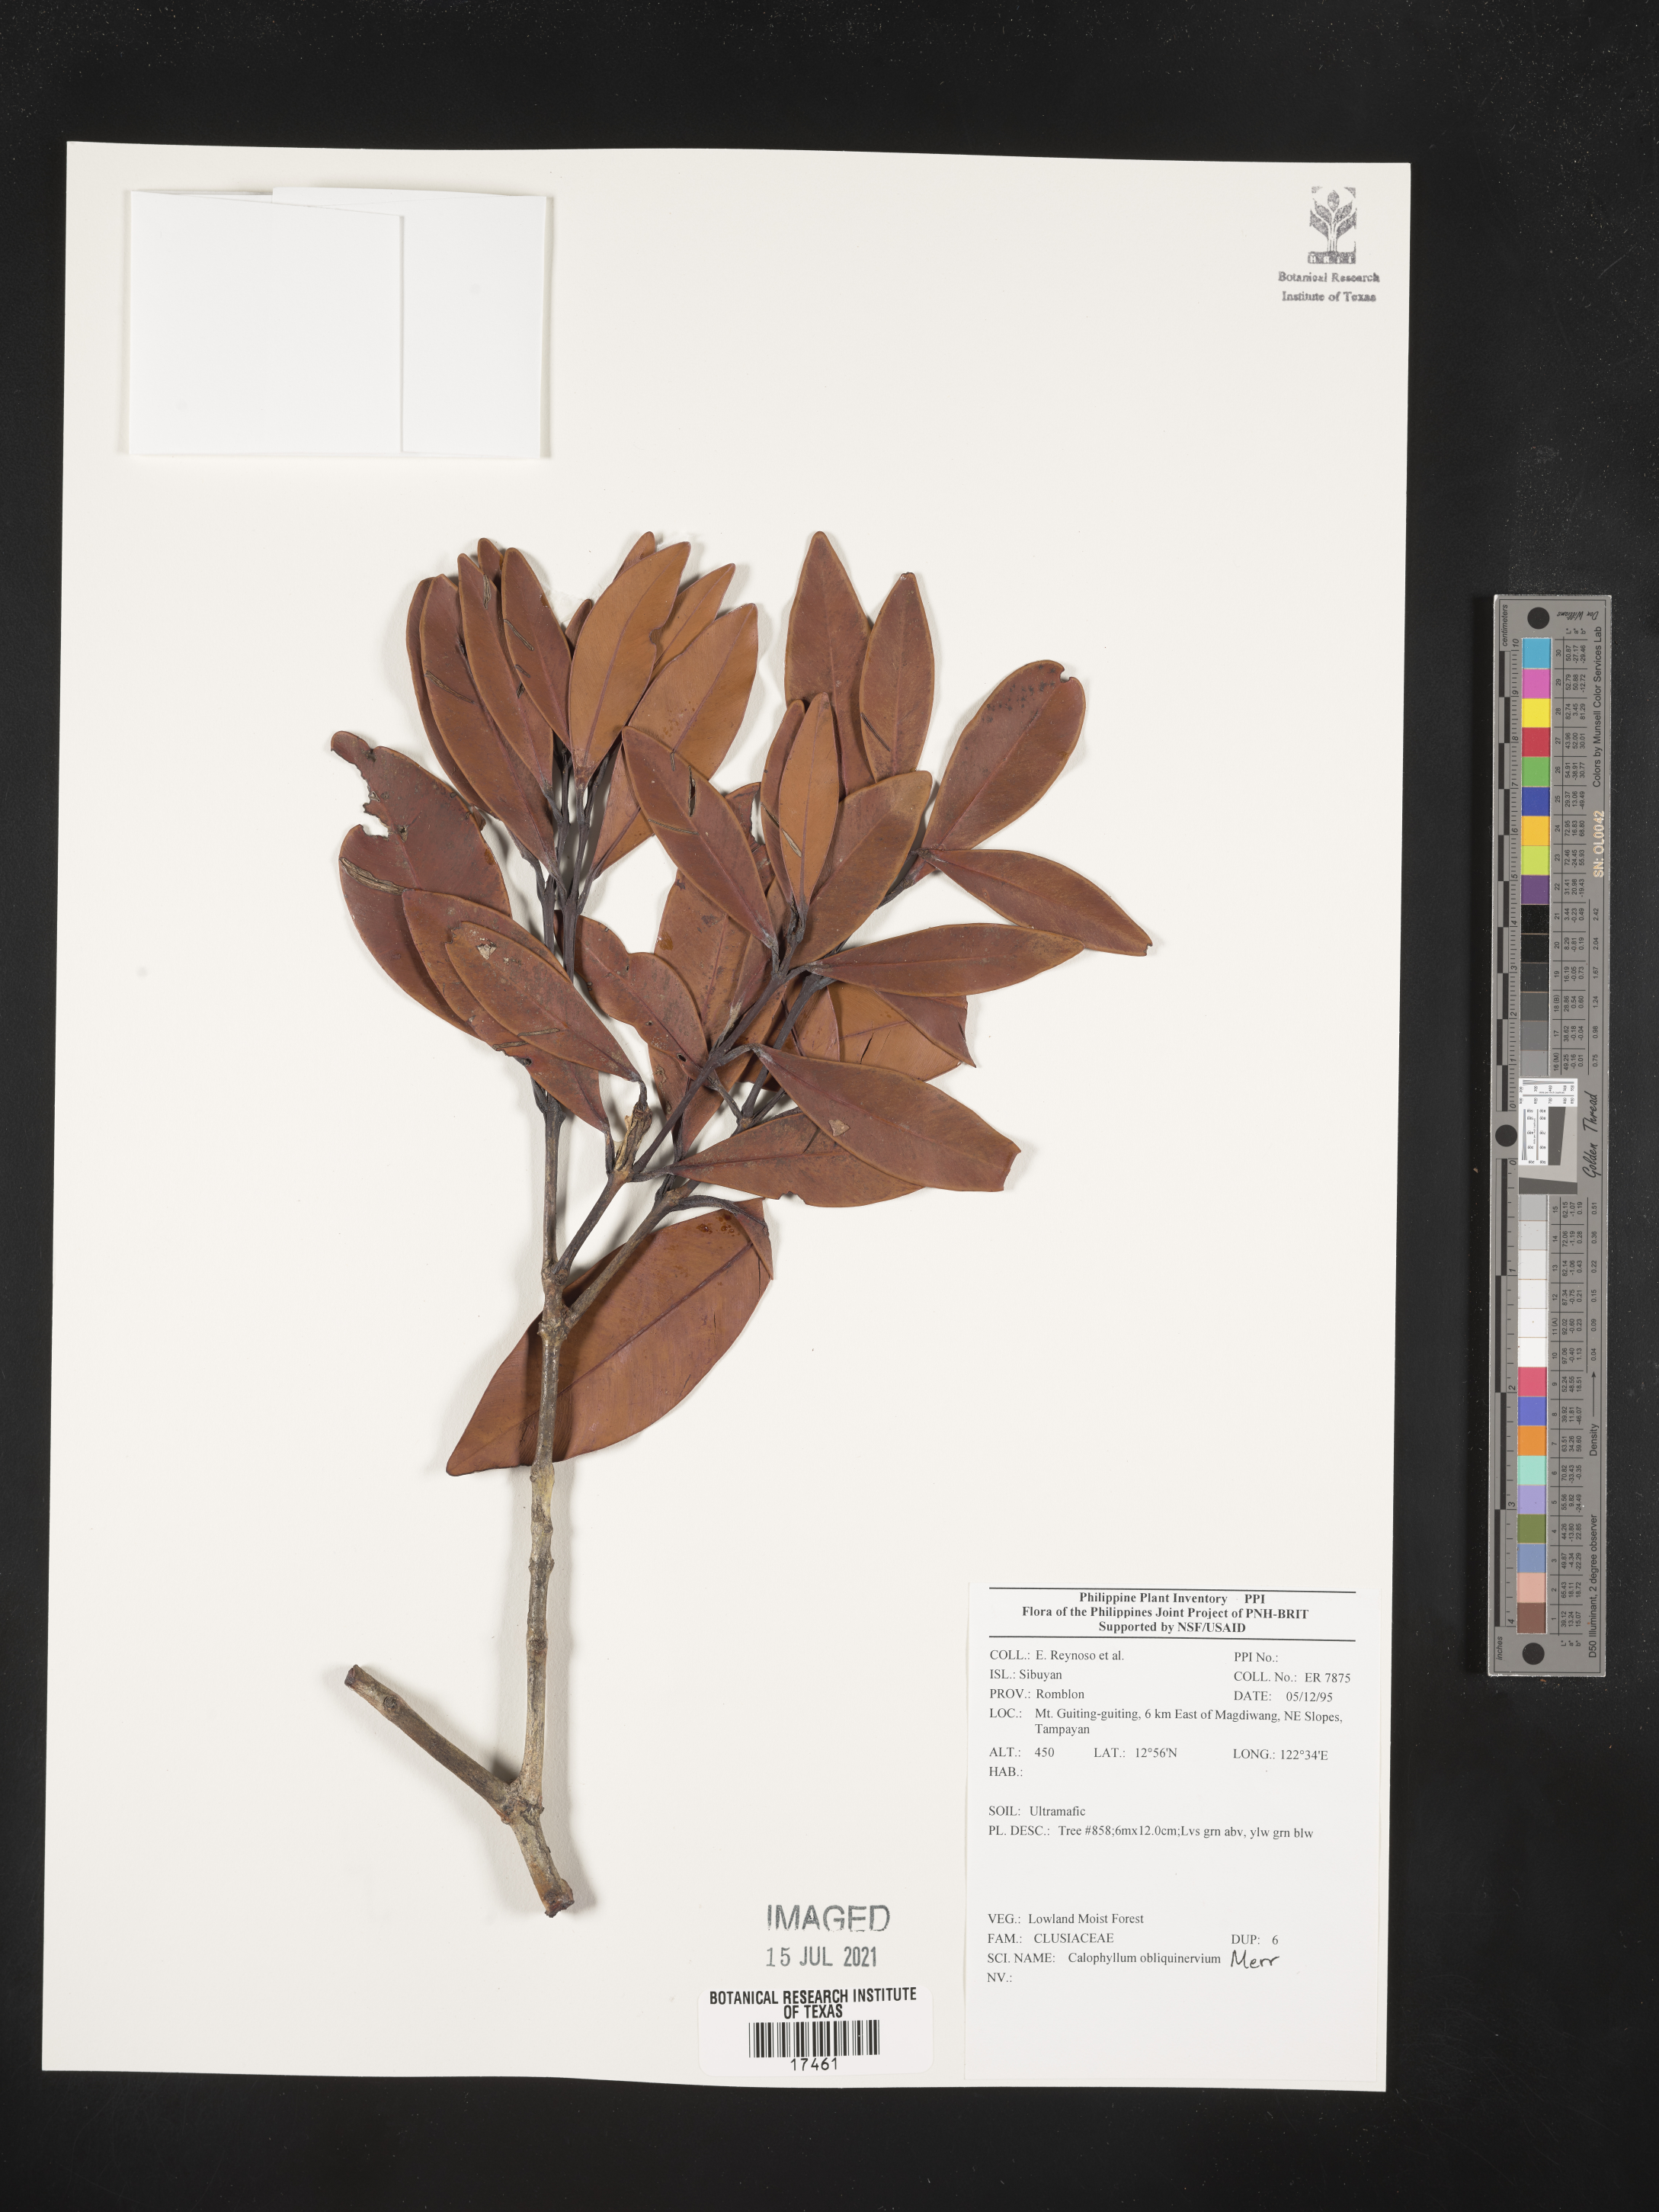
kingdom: Plantae
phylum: Tracheophyta
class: Magnoliopsida
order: Malpighiales
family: Calophyllaceae
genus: Calophyllum
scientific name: Calophyllum obliquinervium
